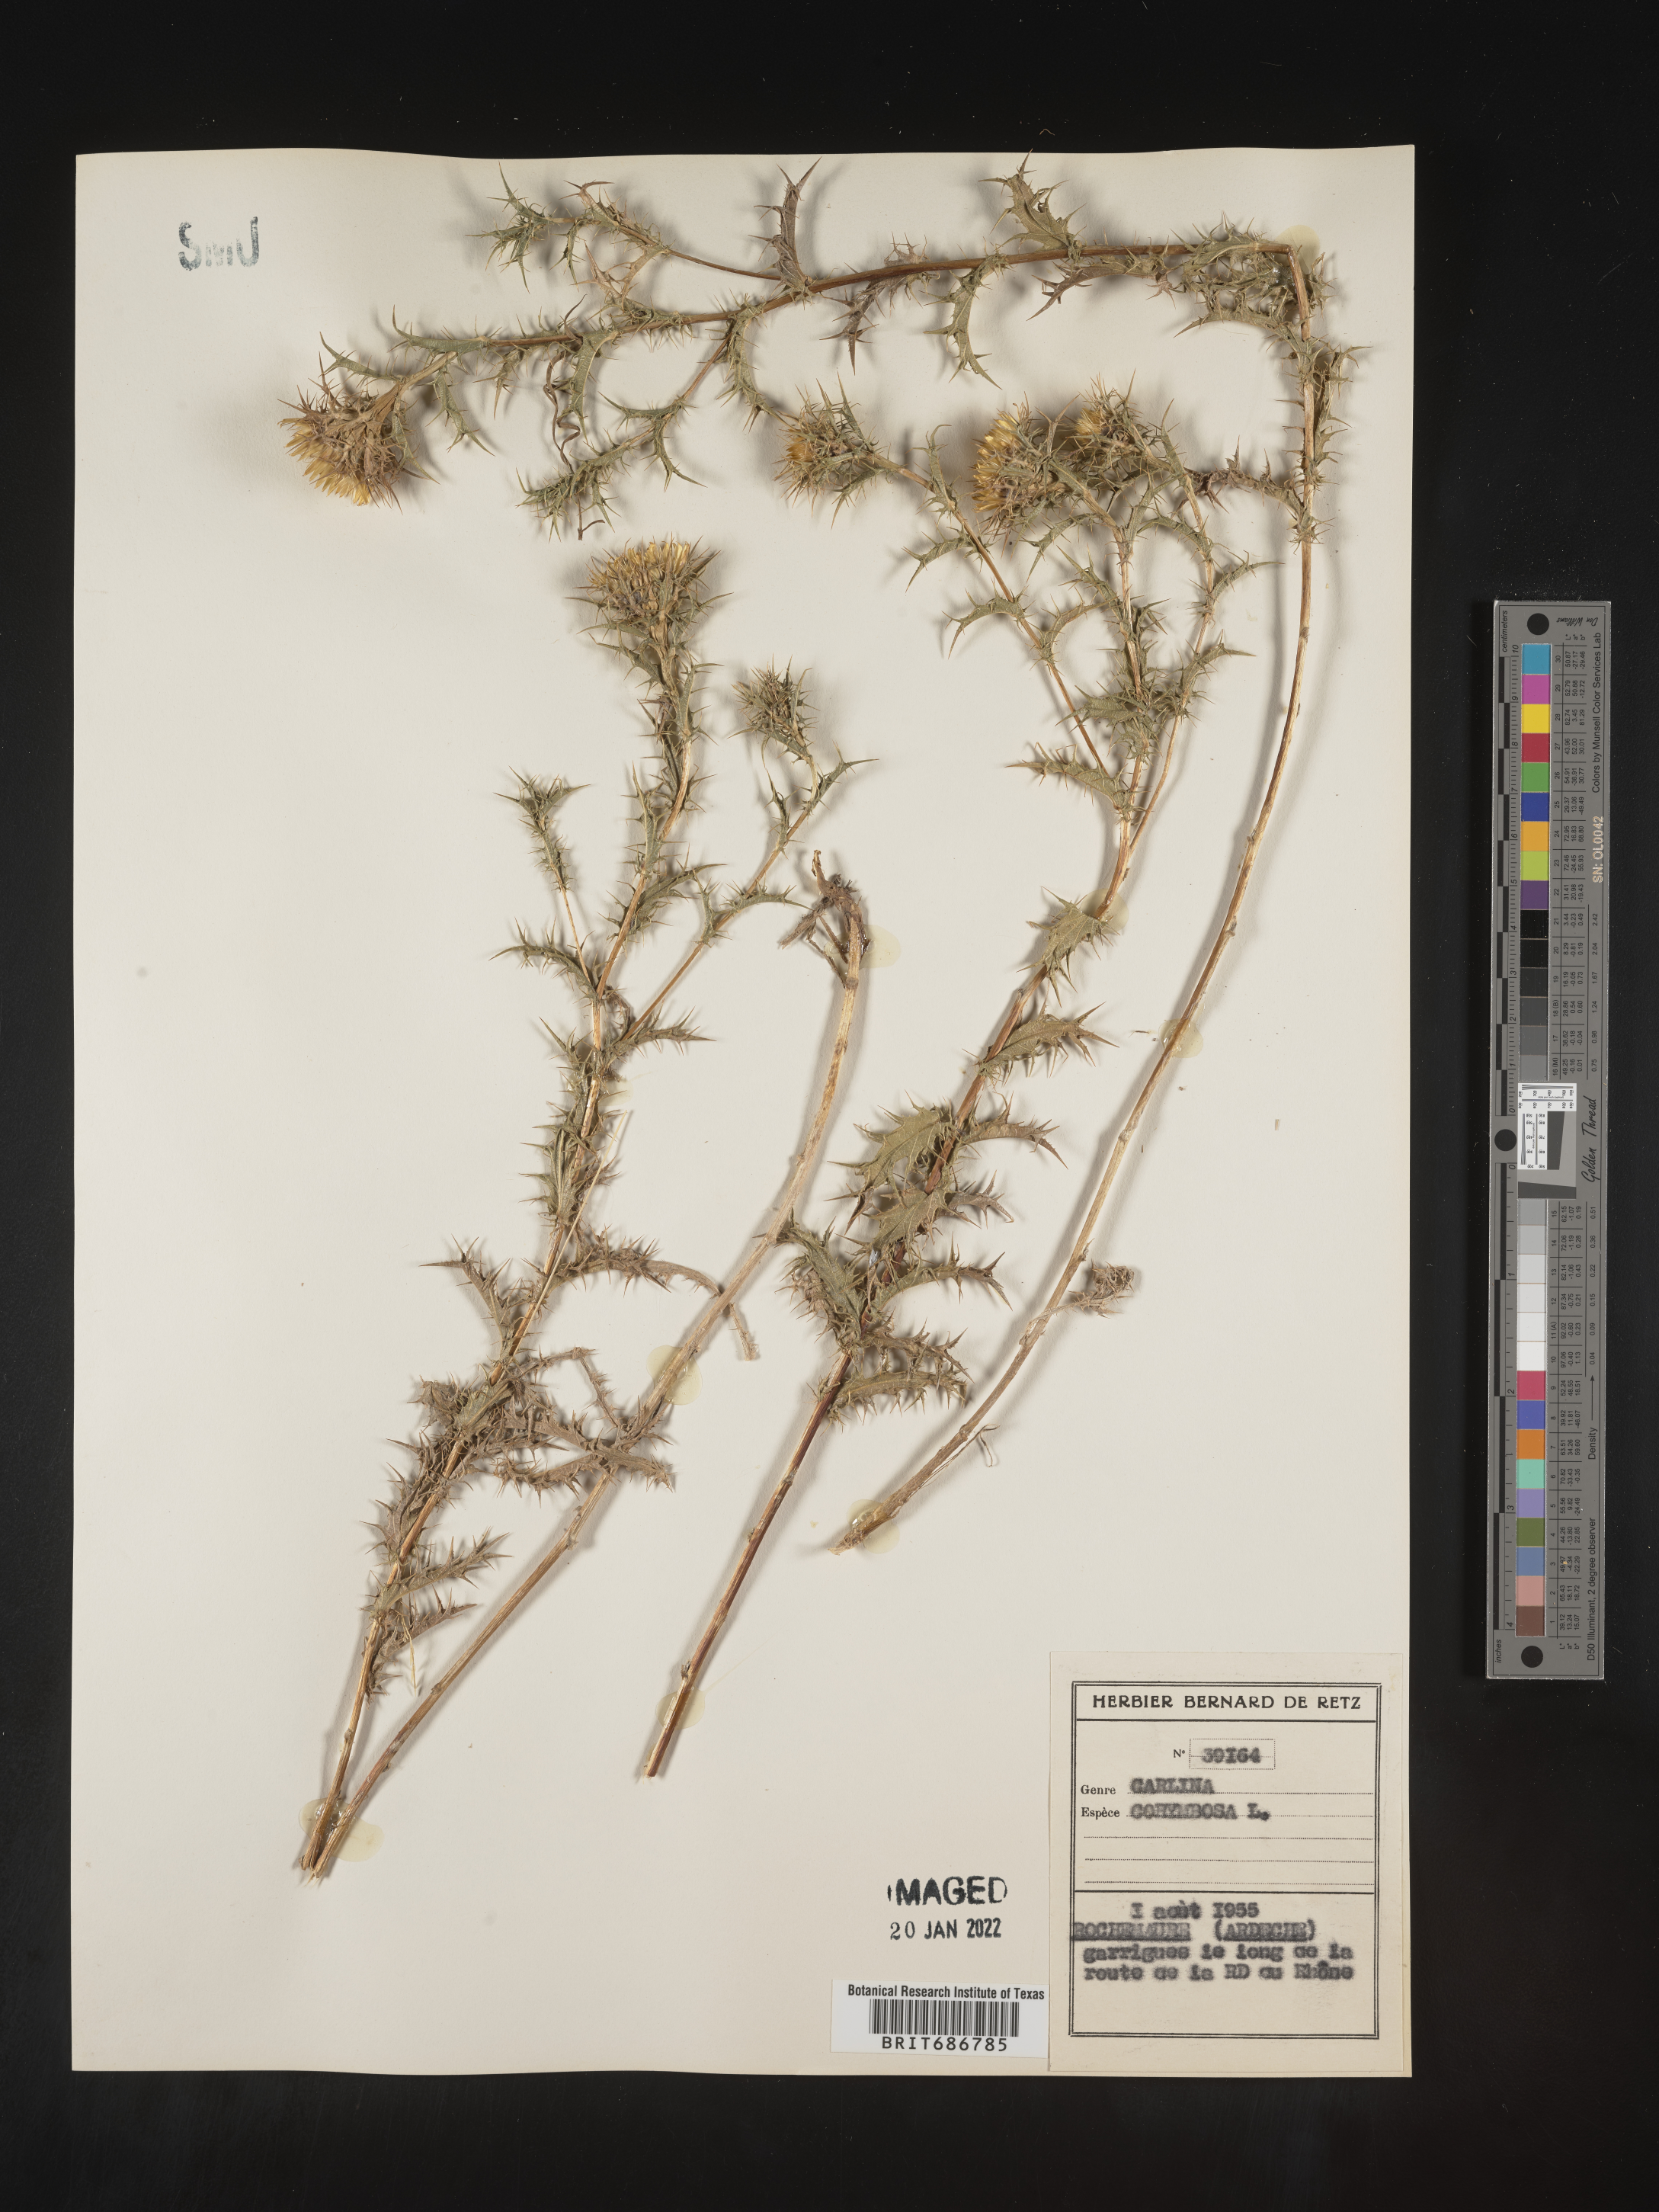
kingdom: Plantae
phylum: Tracheophyta
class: Magnoliopsida
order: Asterales
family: Asteraceae
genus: Carlina
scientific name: Carlina
